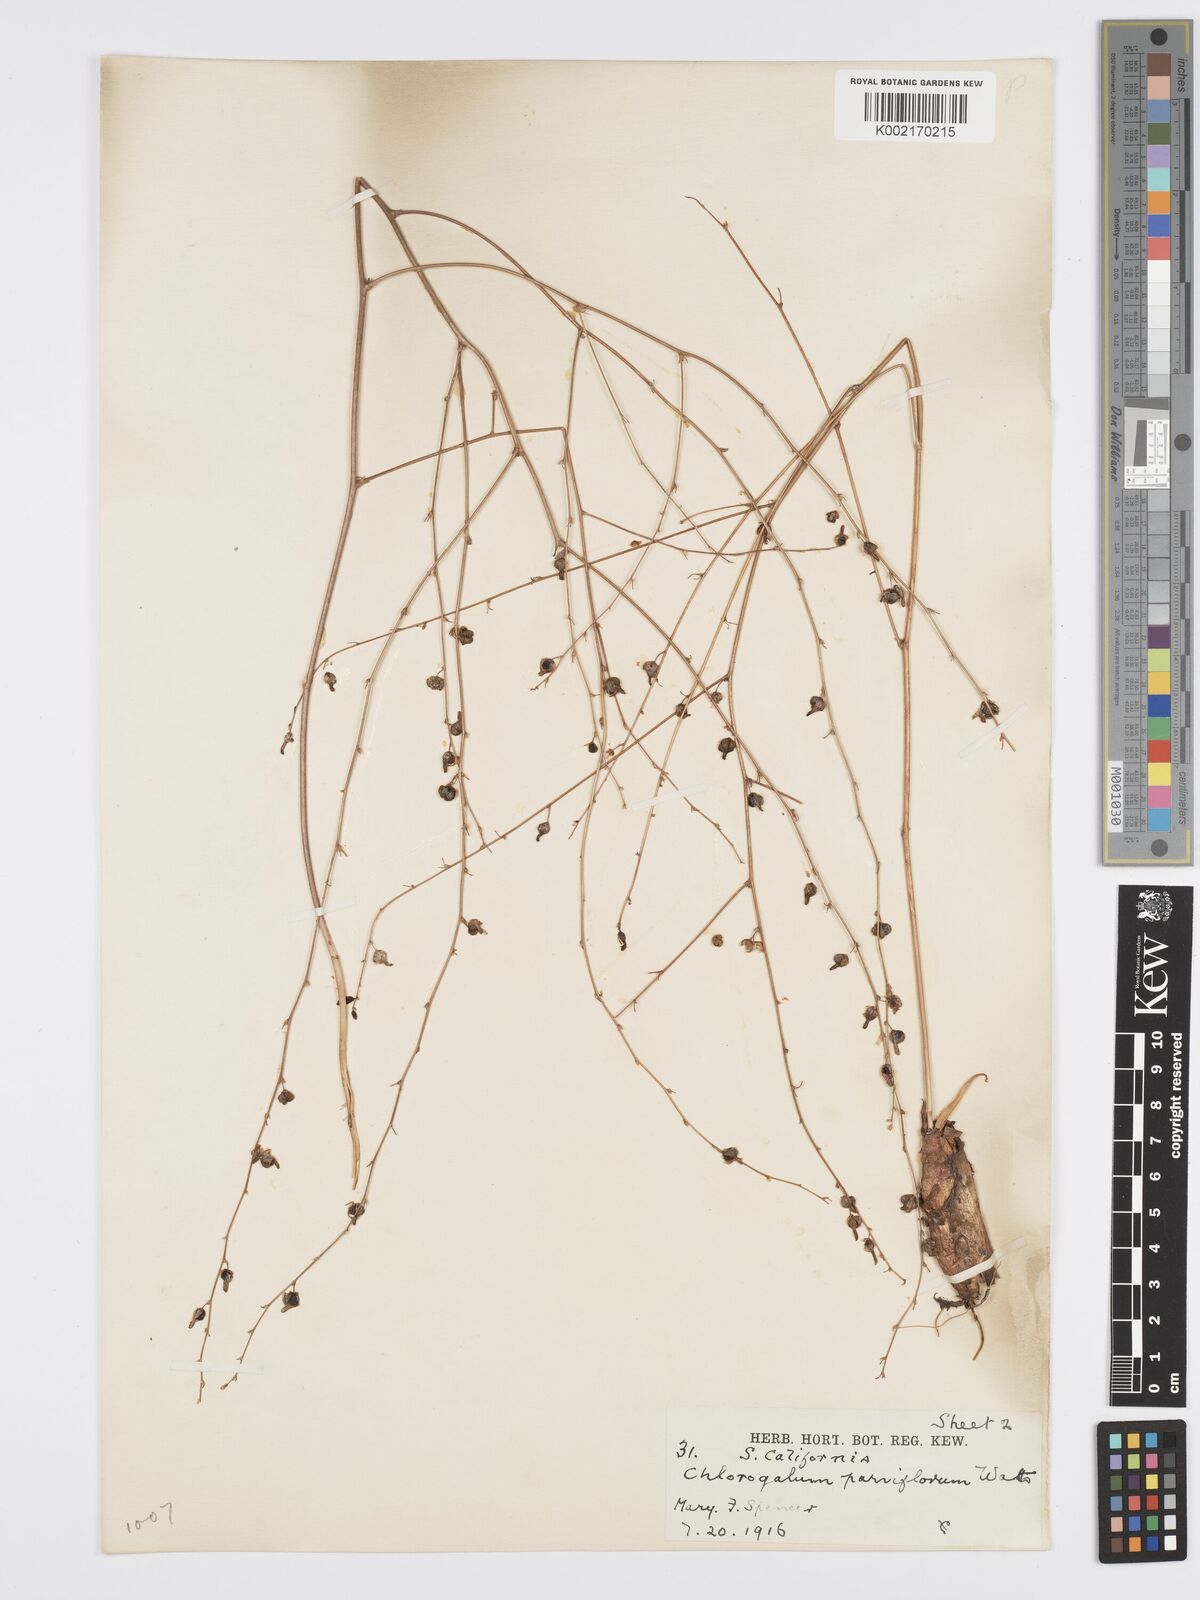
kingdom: Plantae
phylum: Tracheophyta
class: Liliopsida
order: Asparagales
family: Asparagaceae
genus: Hooveria
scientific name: Hooveria parviflora
